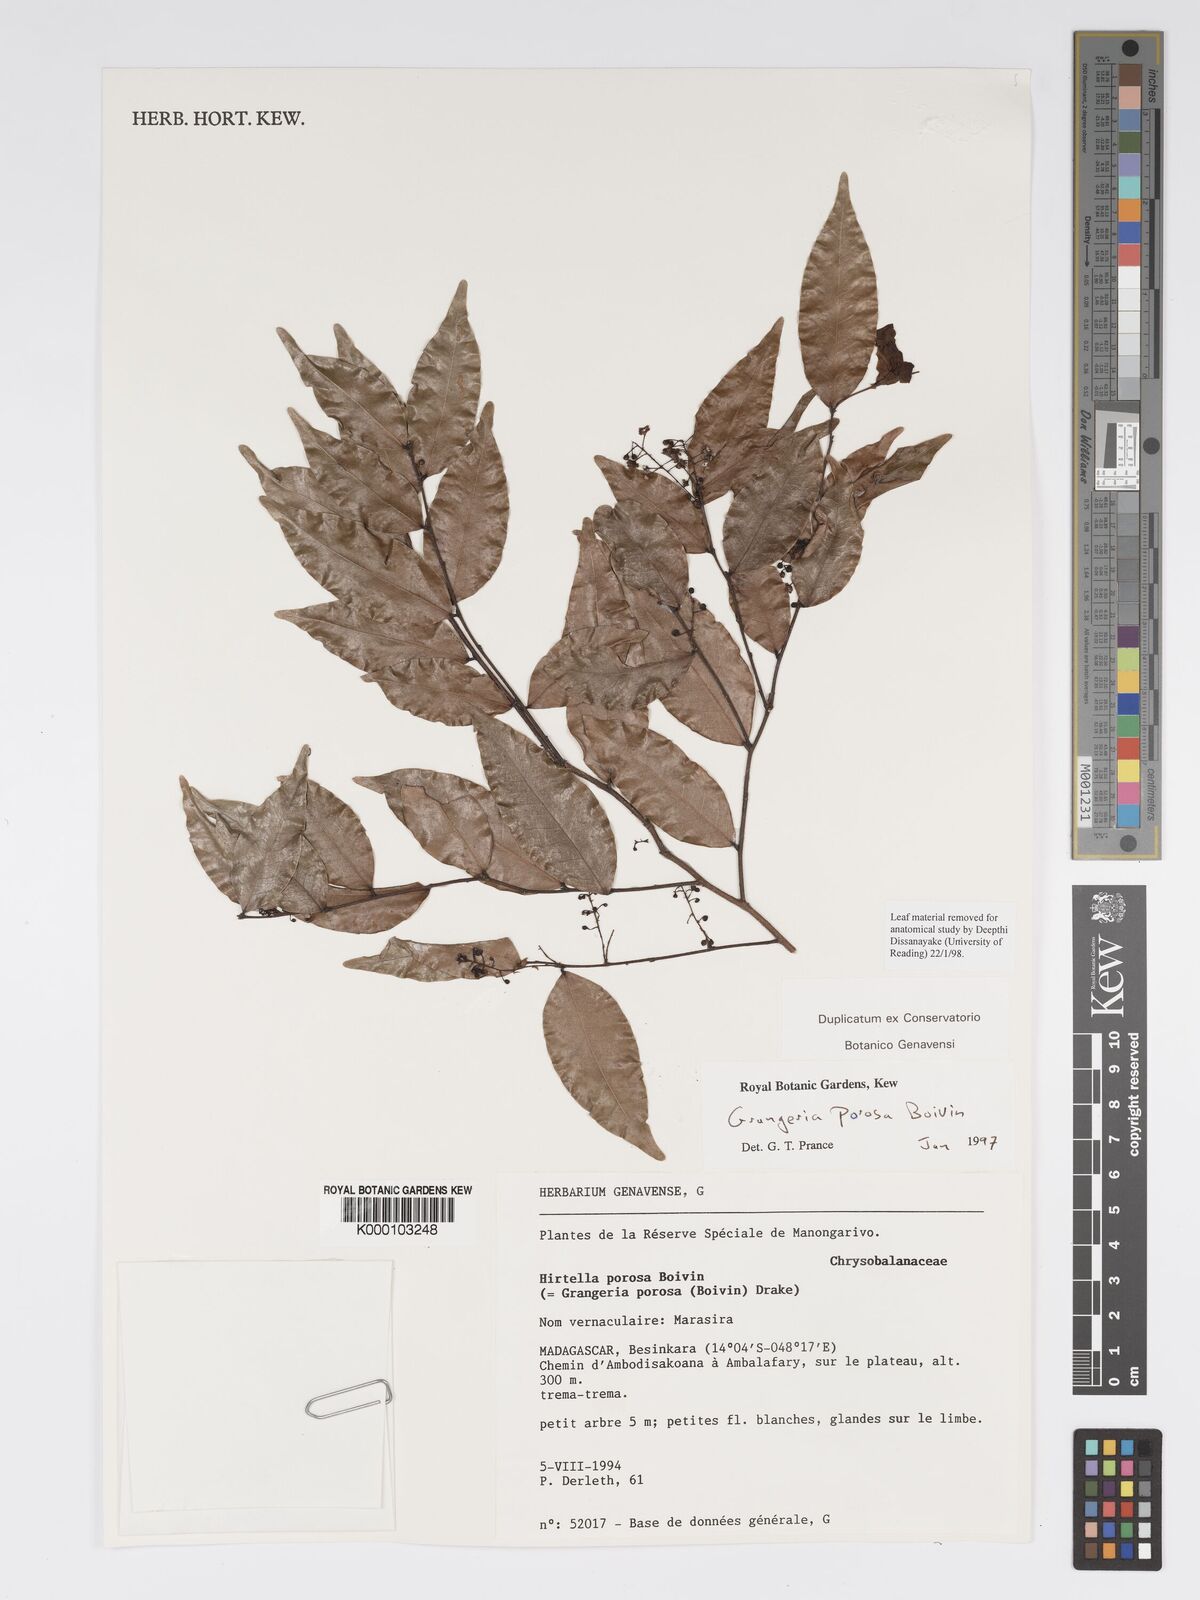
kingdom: Plantae
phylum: Tracheophyta
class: Magnoliopsida
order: Malpighiales
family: Chrysobalanaceae
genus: Grangeria
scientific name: Grangeria porosa
